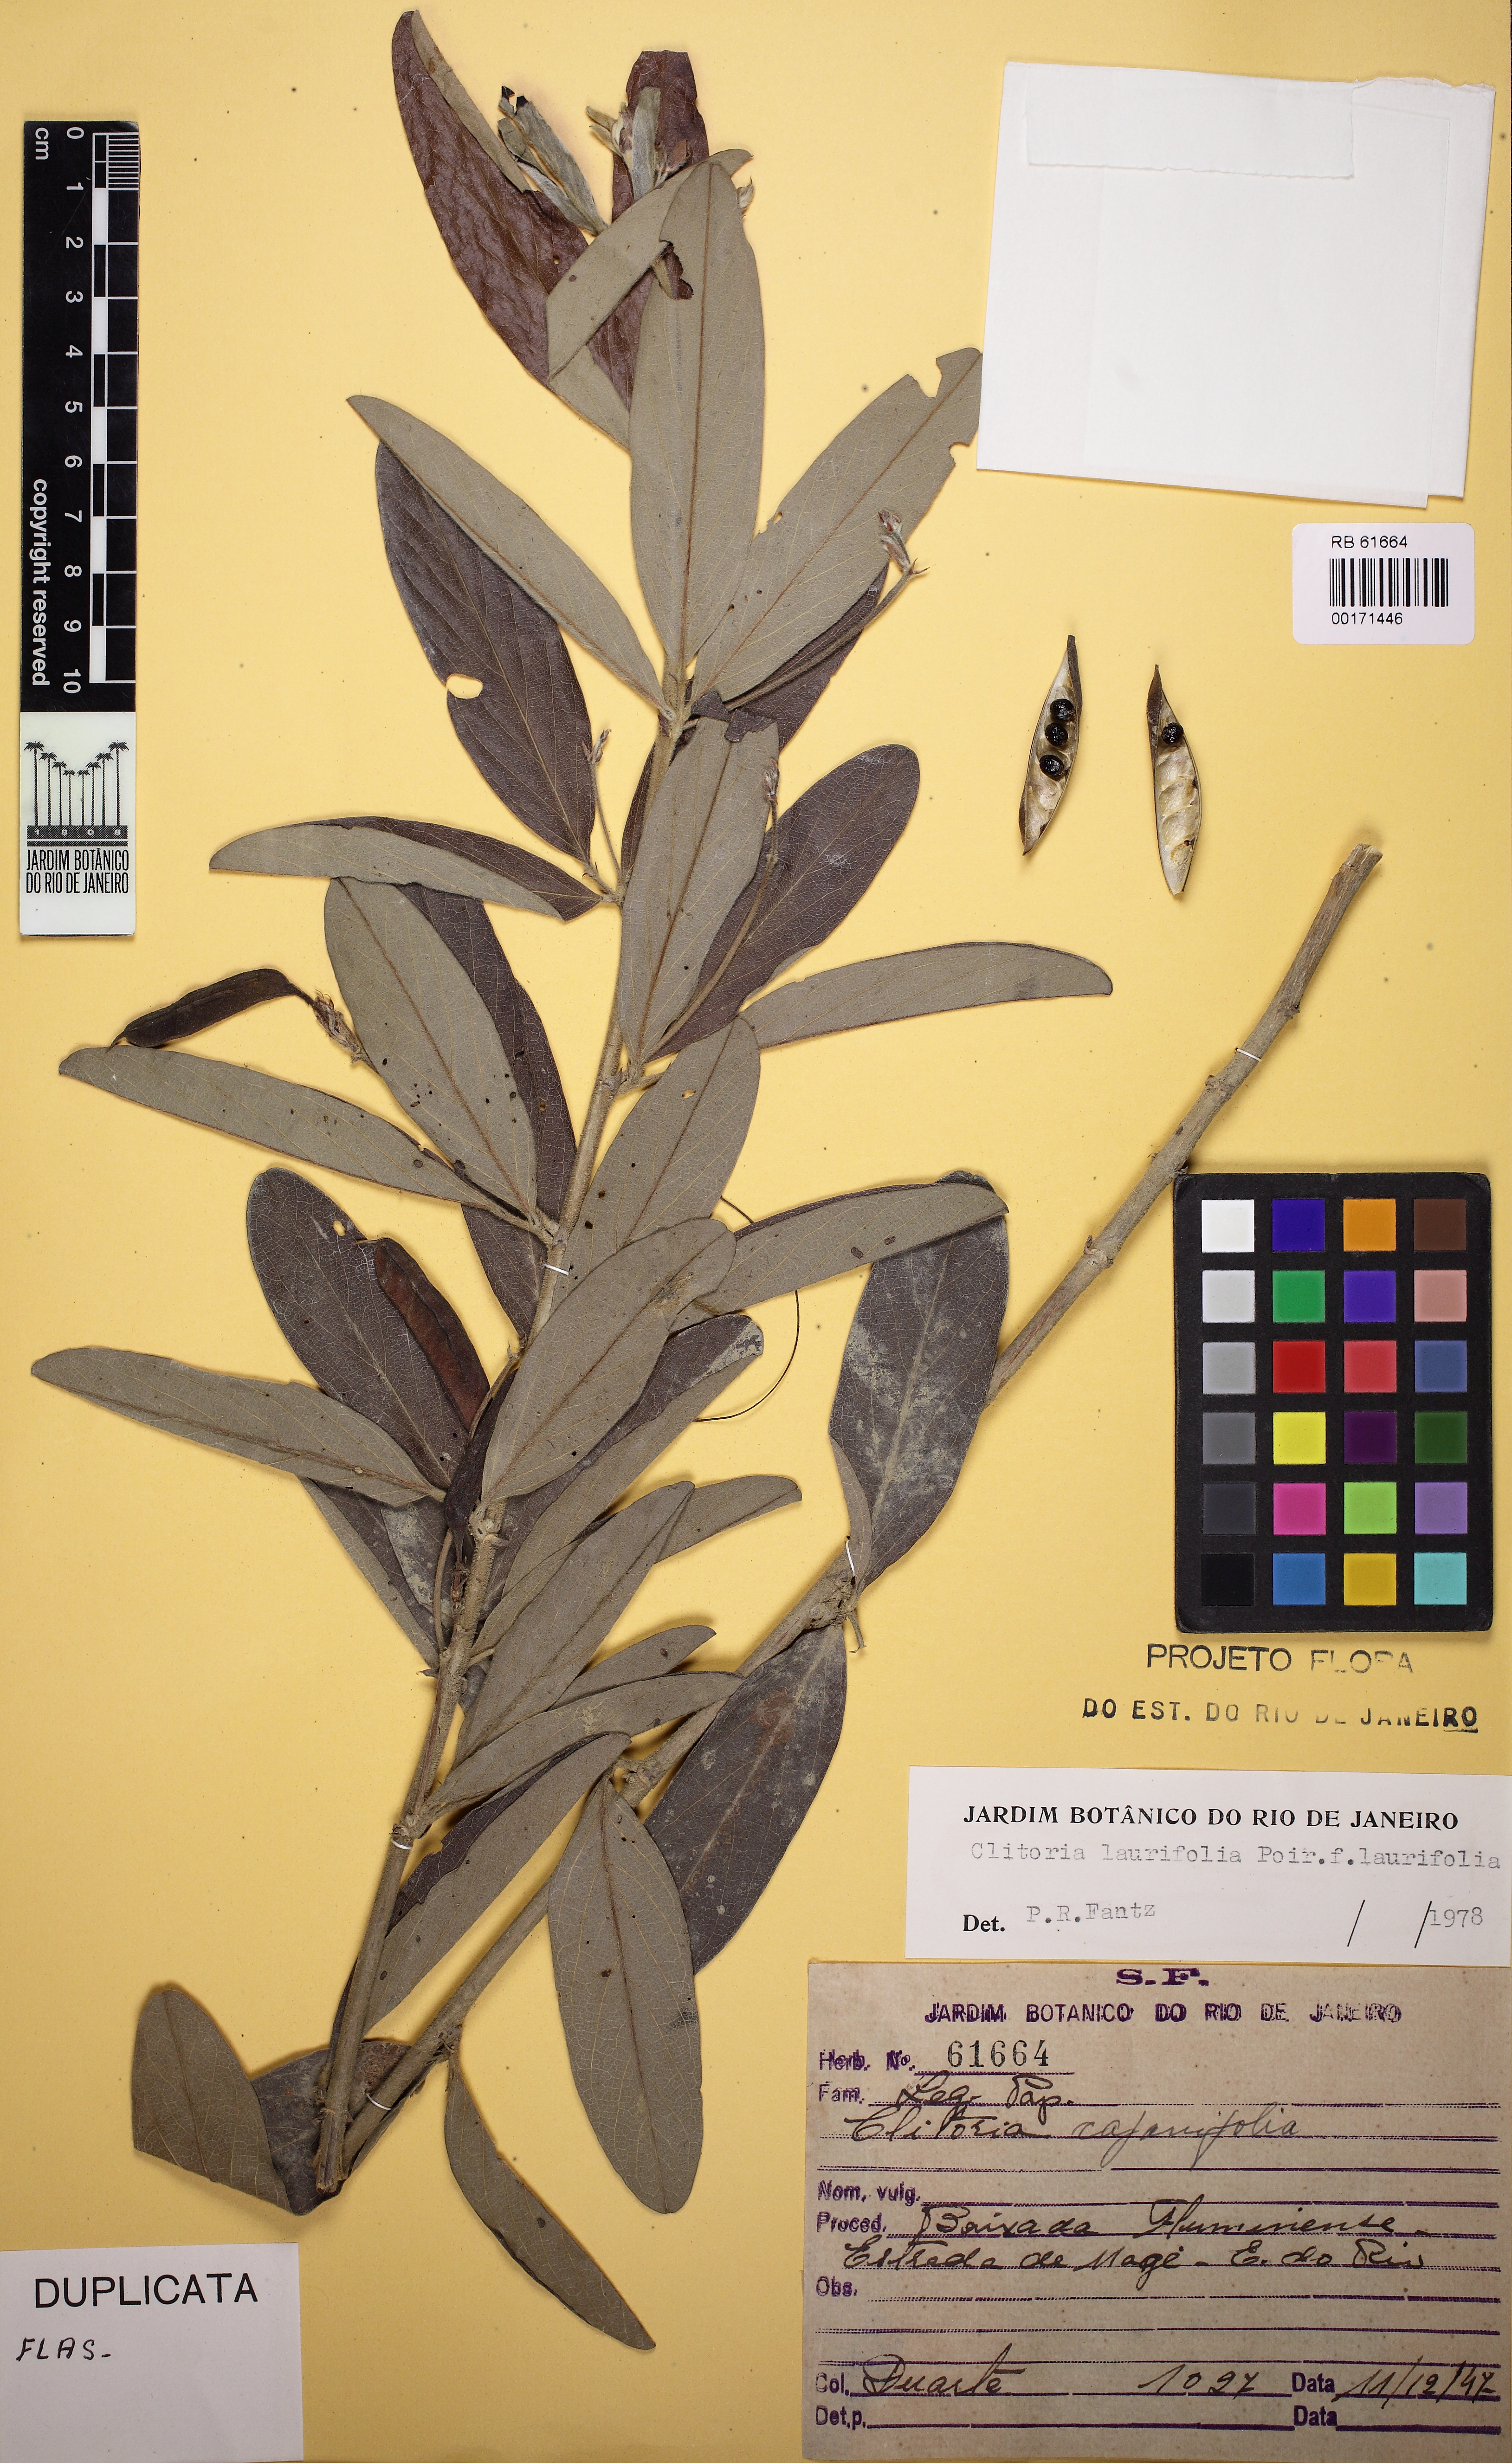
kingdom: Plantae
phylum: Tracheophyta
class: Magnoliopsida
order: Fabales
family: Fabaceae
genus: Clitoria
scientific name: Clitoria laurifolia
